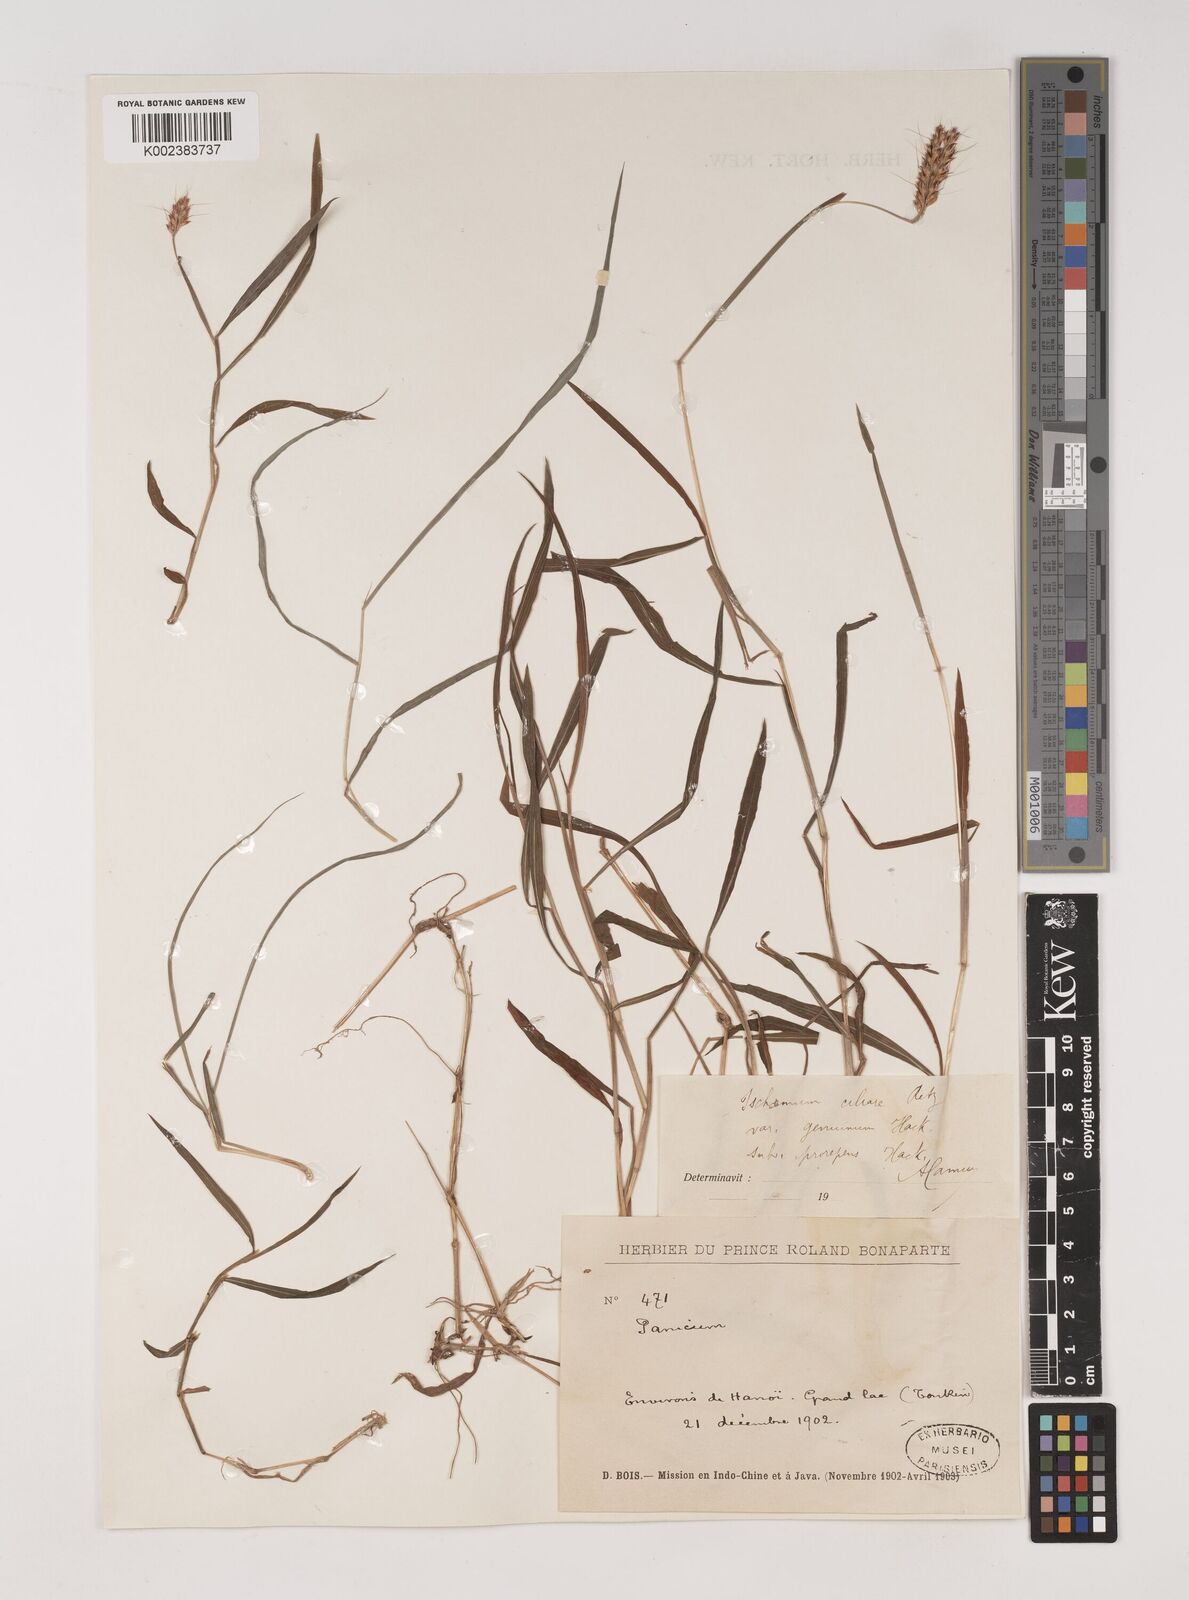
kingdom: Plantae
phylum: Tracheophyta
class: Liliopsida
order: Poales
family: Poaceae
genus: Ischaemum
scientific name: Ischaemum ciliare
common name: Grass
